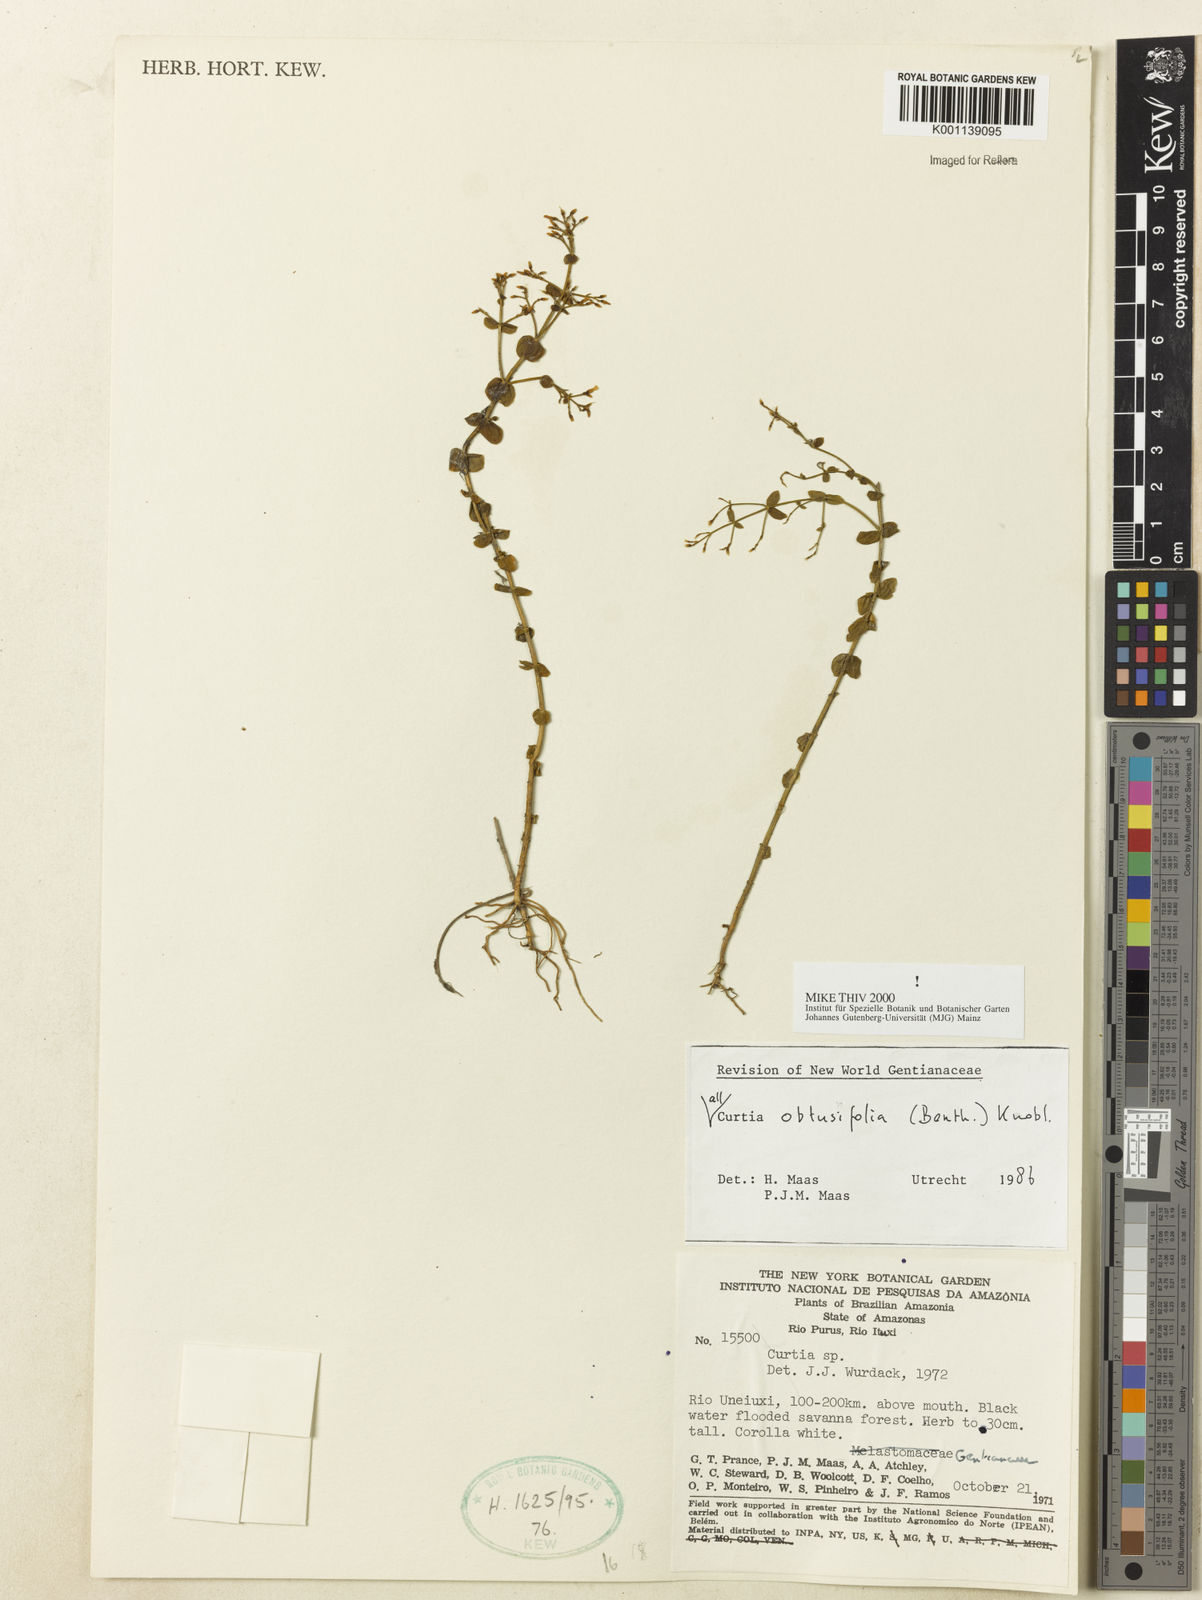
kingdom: Plantae
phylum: Tracheophyta
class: Magnoliopsida
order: Gentianales
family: Gentianaceae
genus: Curtia
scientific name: Curtia obtusifolia
